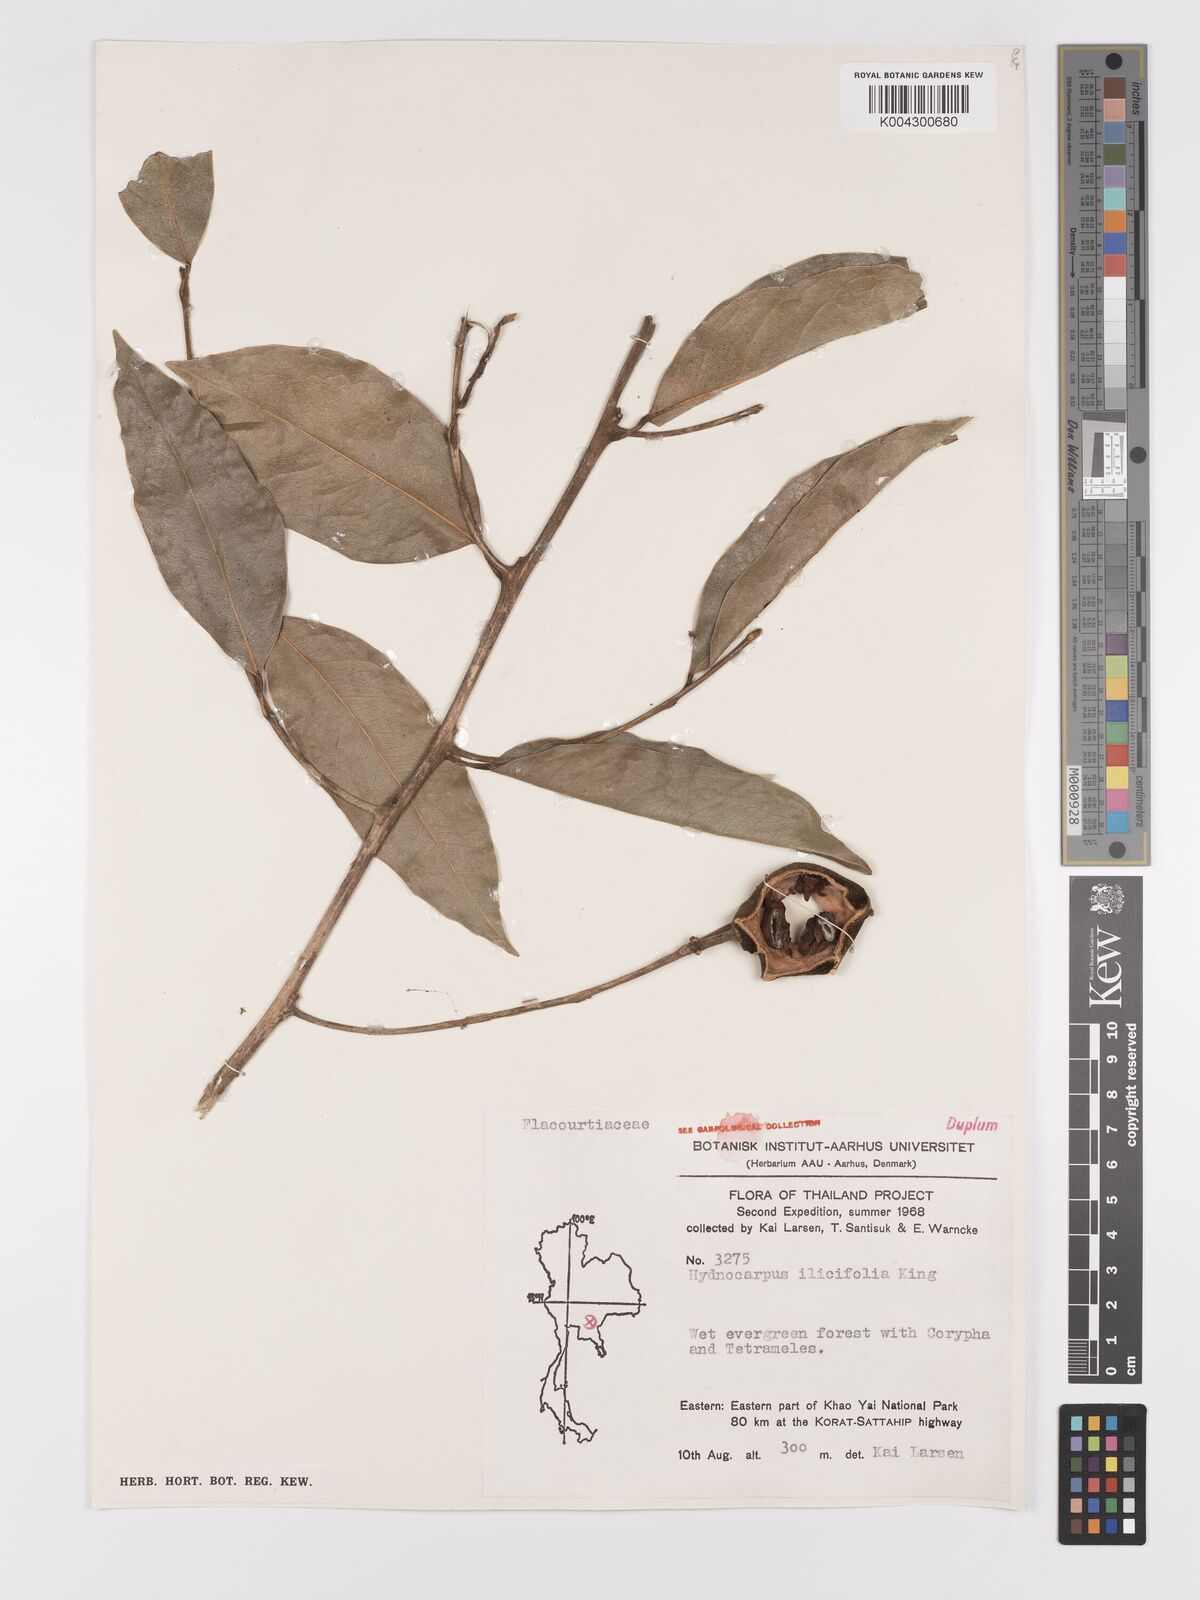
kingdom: Plantae
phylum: Tracheophyta
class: Magnoliopsida
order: Malpighiales
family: Achariaceae
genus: Hydnocarpus
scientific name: Hydnocarpus ilicifolius
